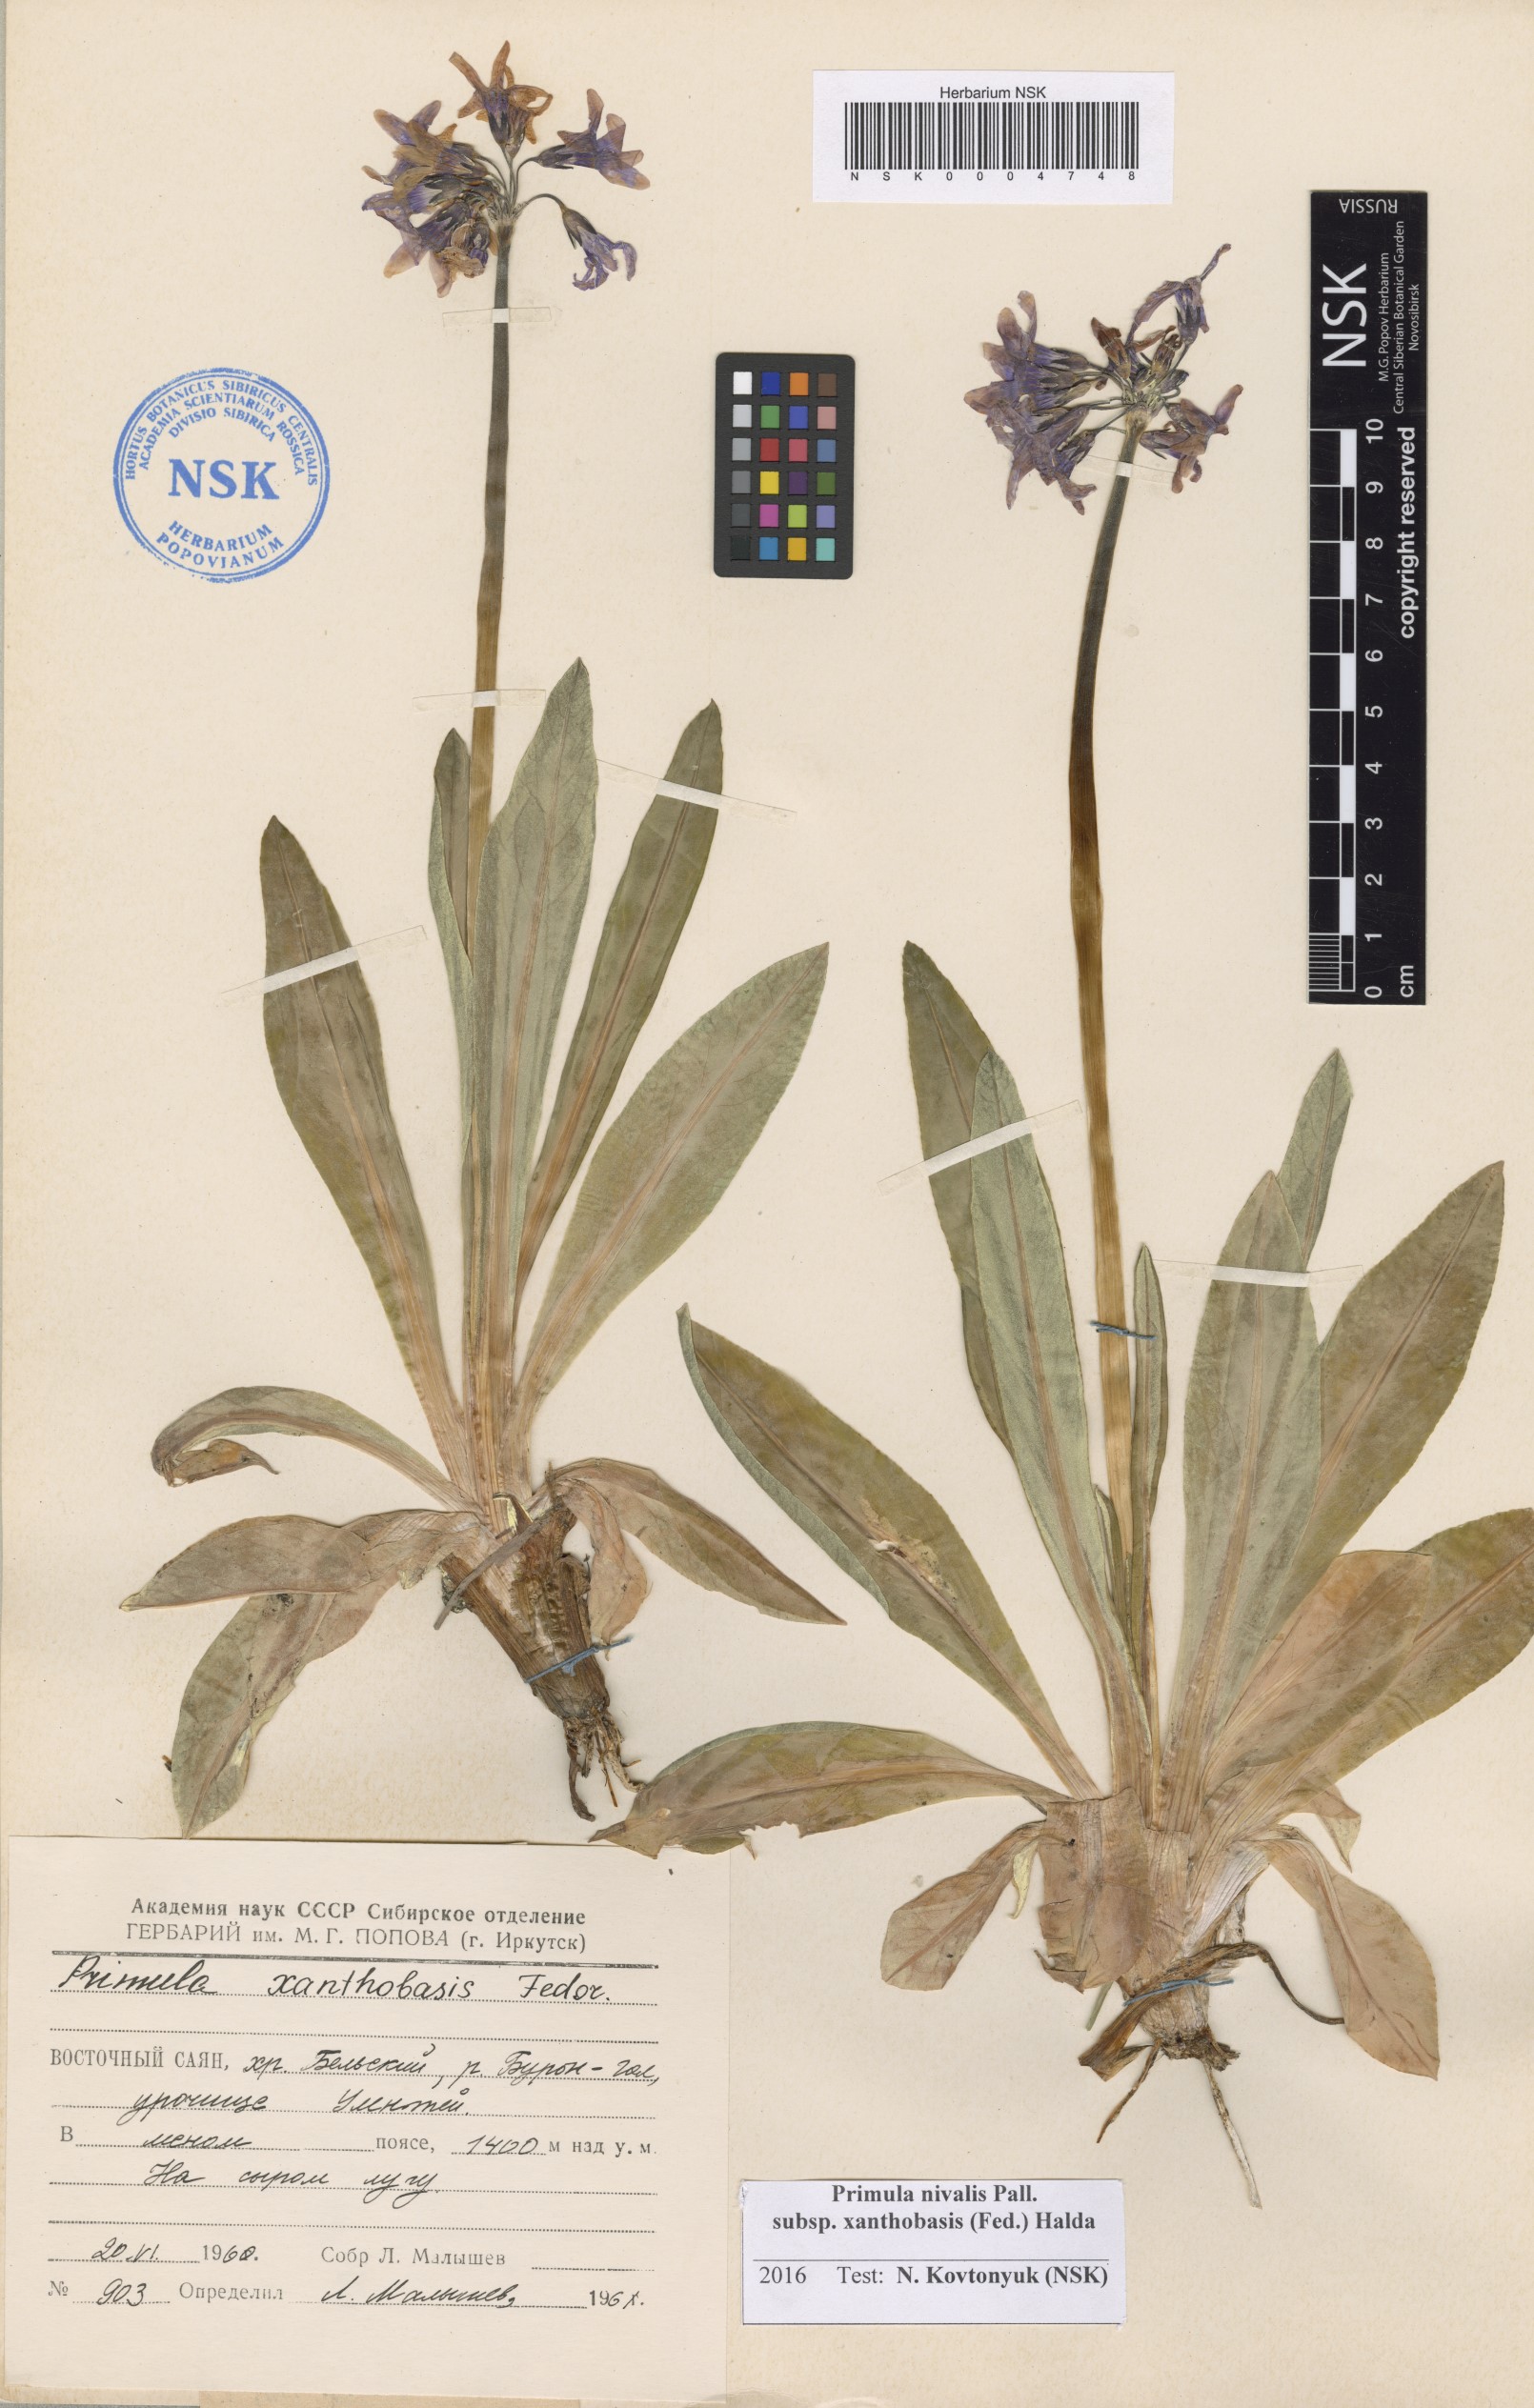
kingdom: Plantae
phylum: Tracheophyta
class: Magnoliopsida
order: Ericales
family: Primulaceae
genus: Primula
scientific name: Primula nivalis
